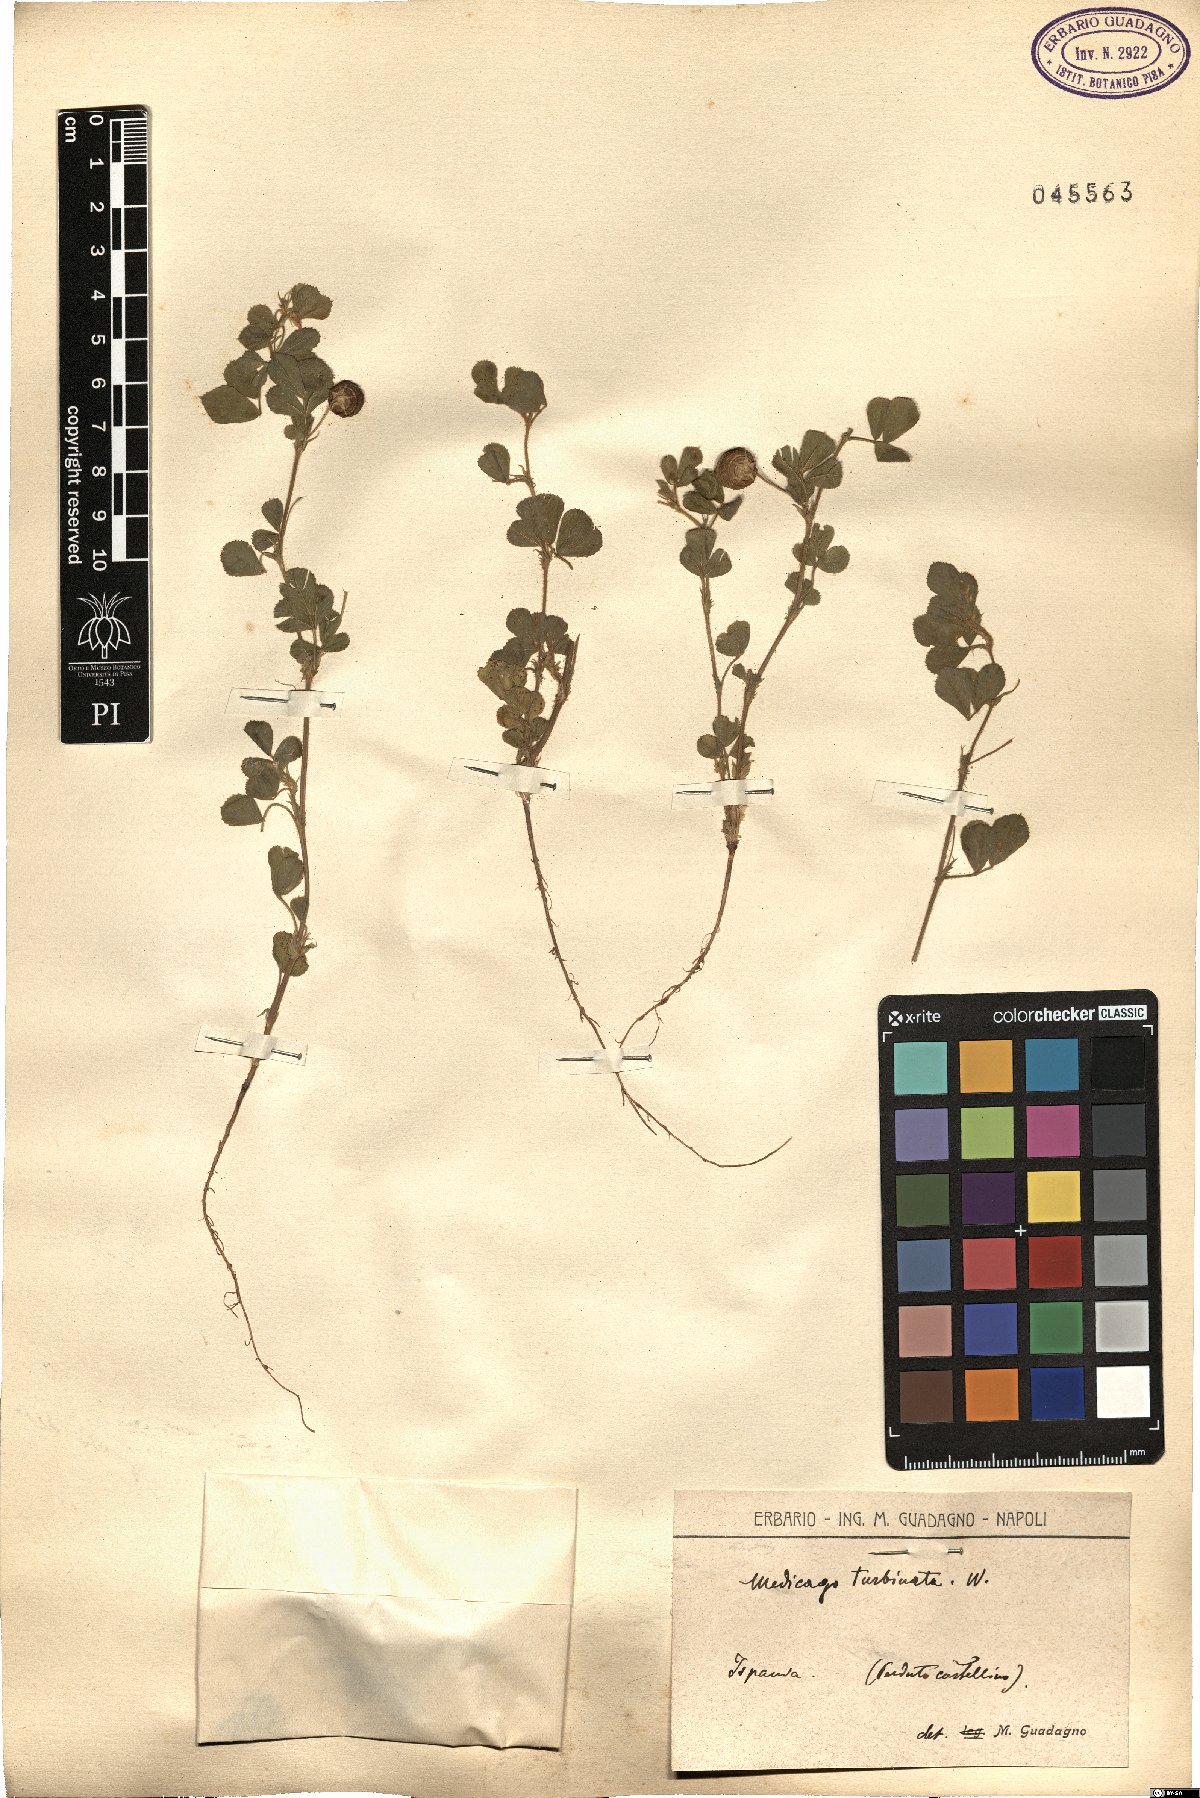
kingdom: Plantae
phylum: Tracheophyta
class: Magnoliopsida
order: Fabales
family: Fabaceae
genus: Medicago
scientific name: Medicago turbinata
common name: Southern medick
